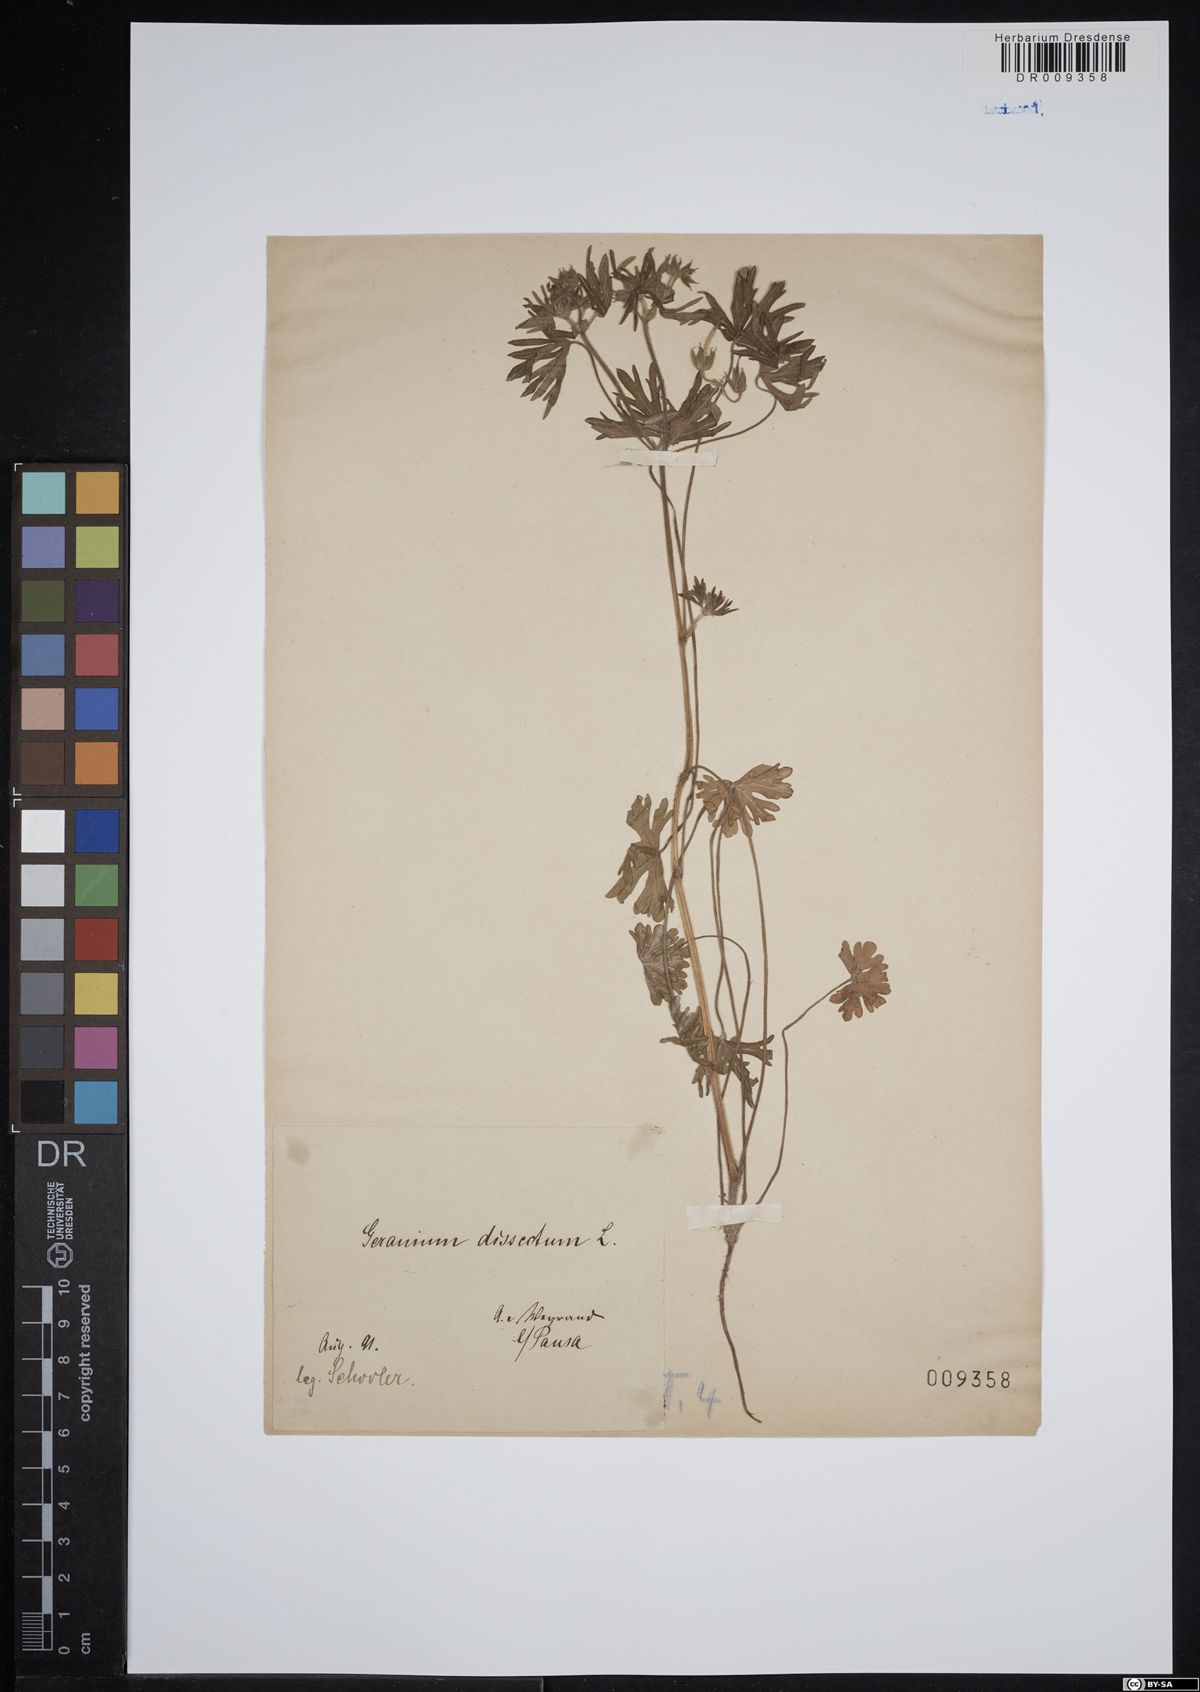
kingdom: Plantae
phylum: Tracheophyta
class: Magnoliopsida
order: Geraniales
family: Geraniaceae
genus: Geranium
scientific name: Geranium dissectum
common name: Cut-leaved crane's-bill
